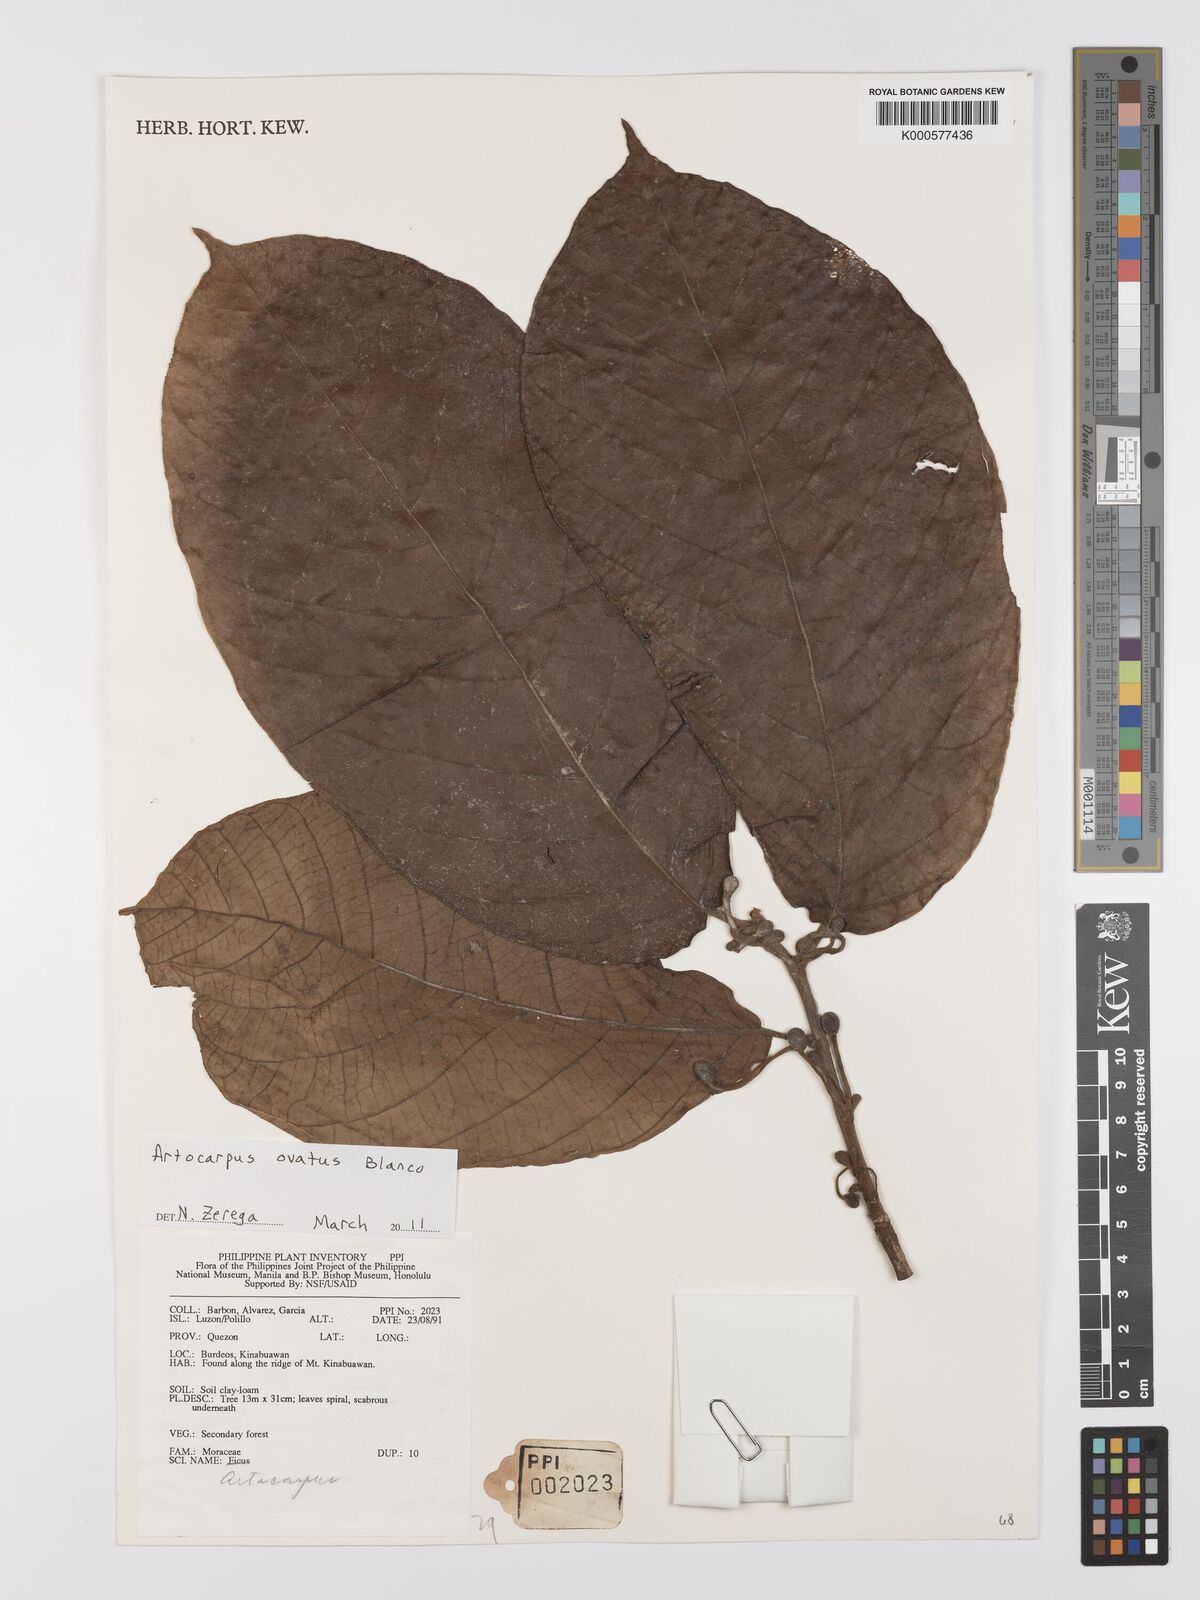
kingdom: Plantae
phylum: Tracheophyta
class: Magnoliopsida
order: Rosales
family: Moraceae
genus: Artocarpus
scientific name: Artocarpus lacucha
